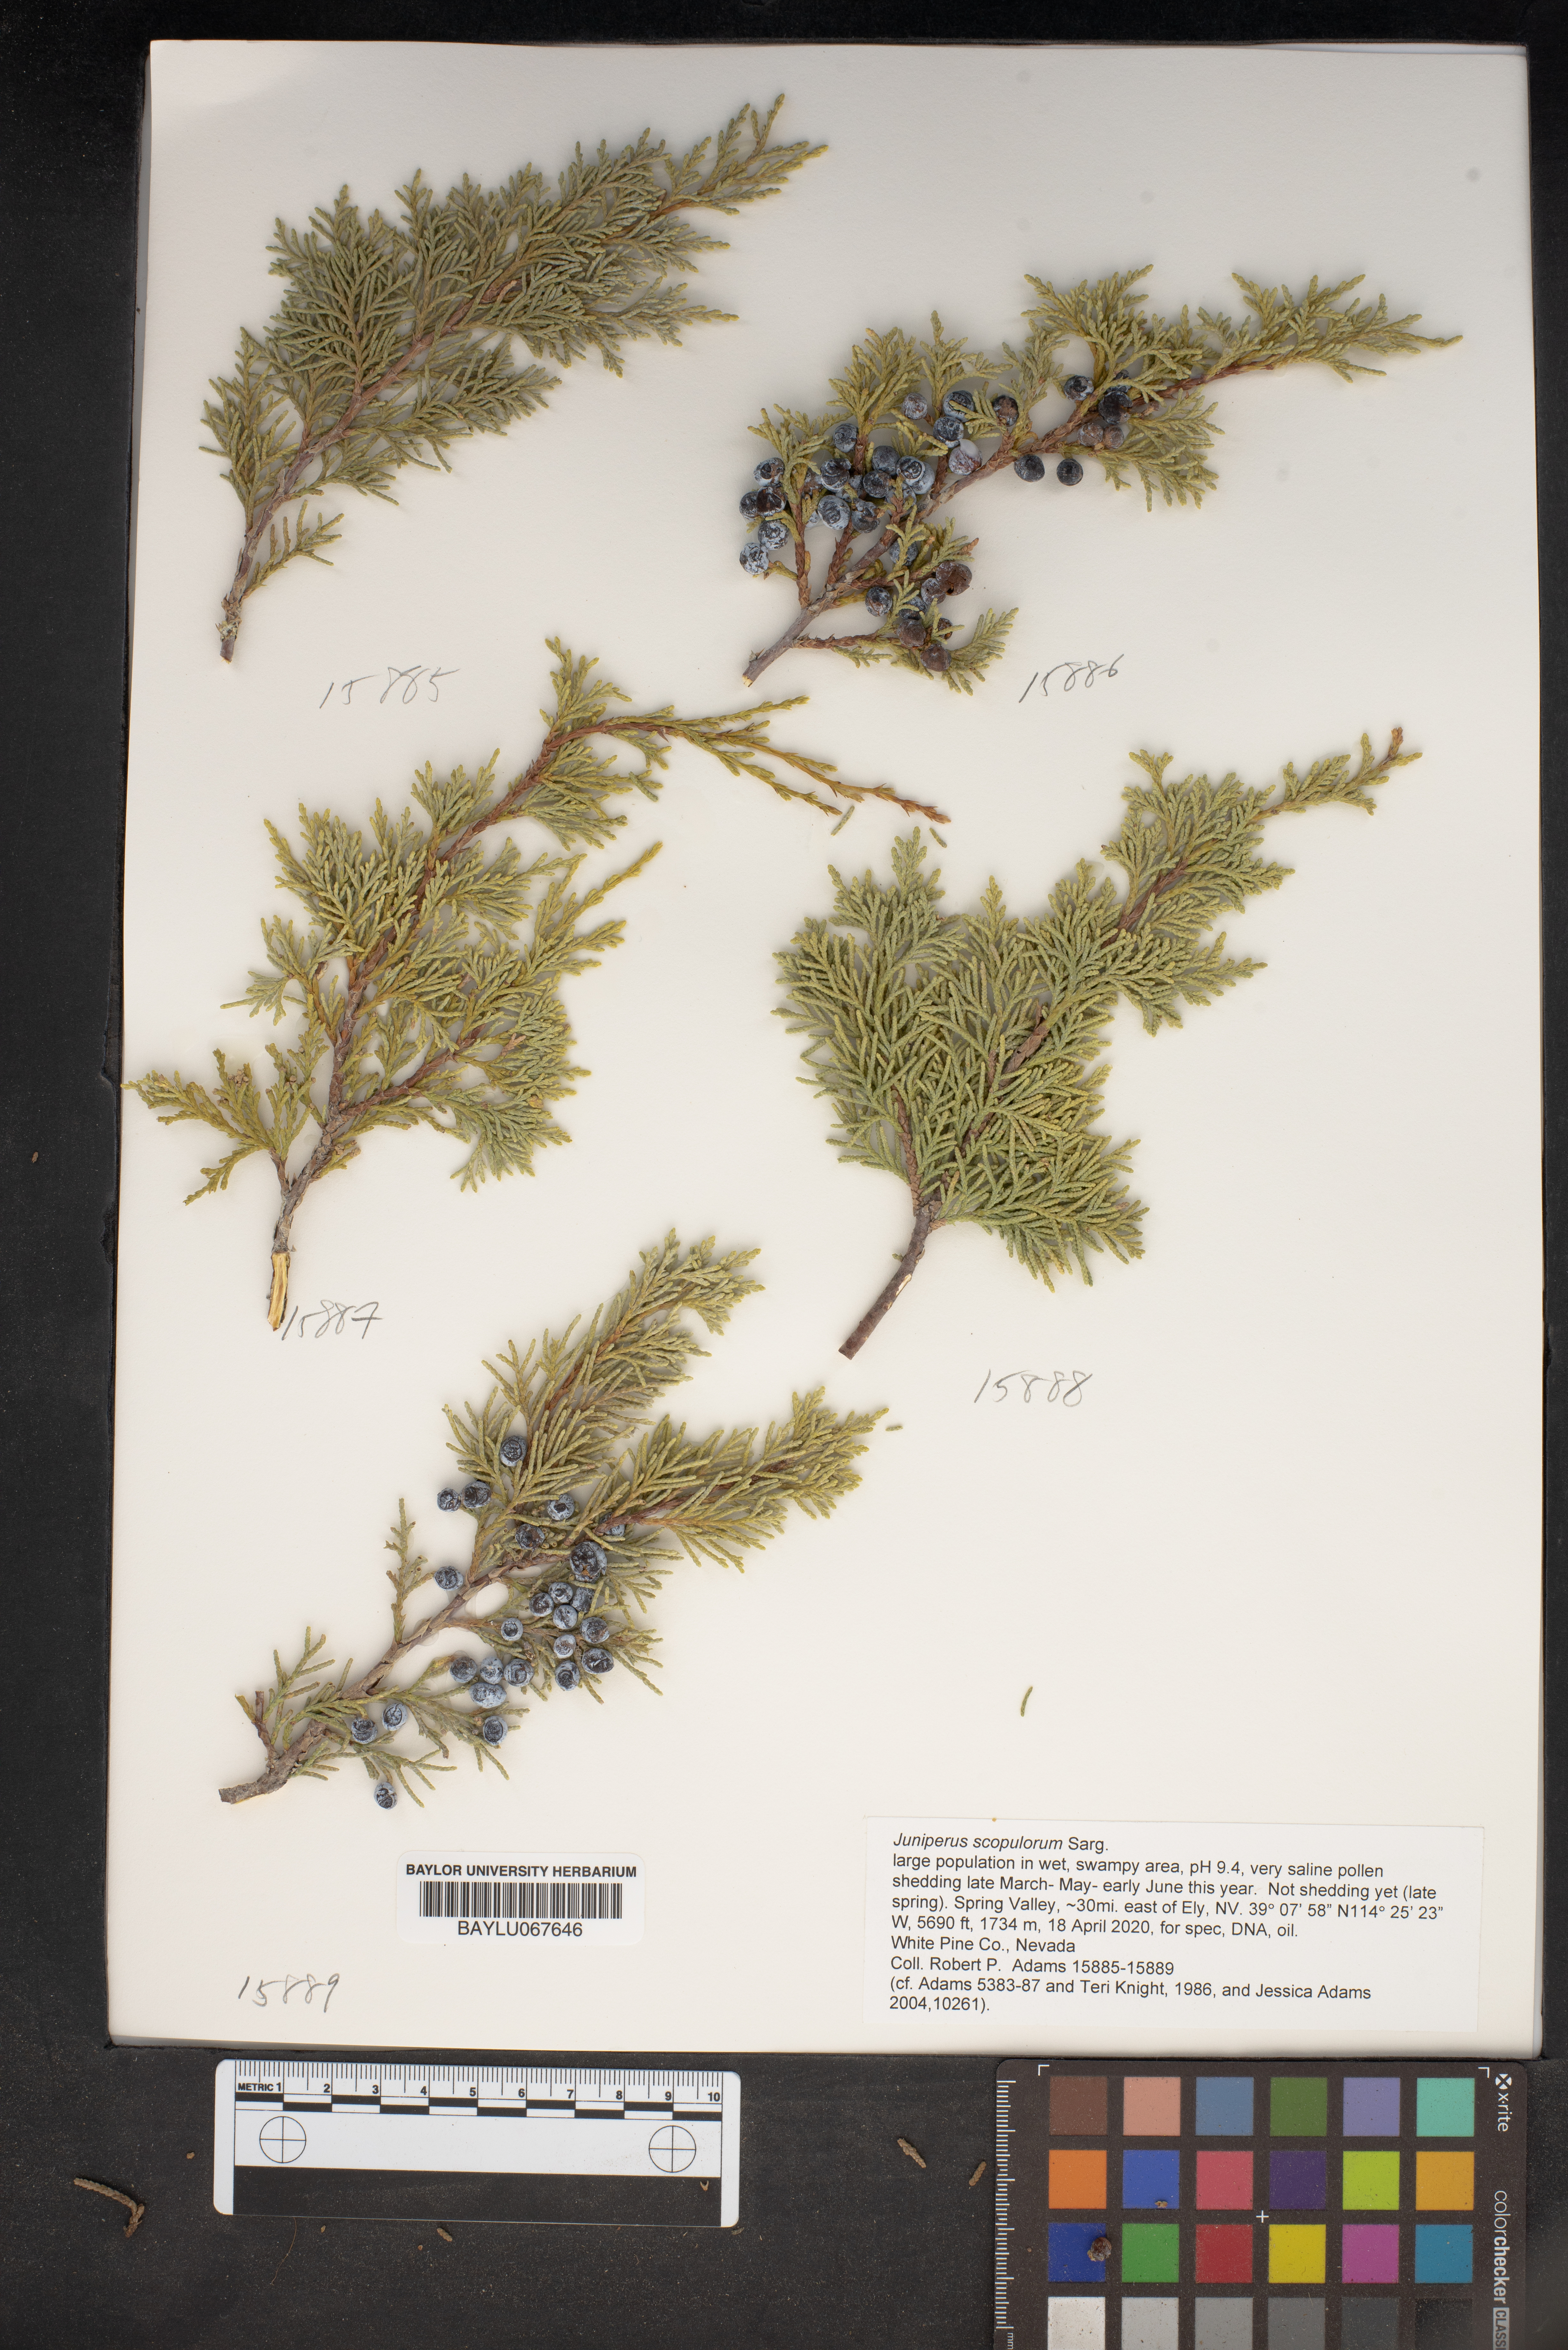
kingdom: Plantae
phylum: Tracheophyta
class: Pinopsida
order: Pinales
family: Cupressaceae
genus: Juniperus
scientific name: Juniperus scopulorum
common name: Rocky mountain juniper
